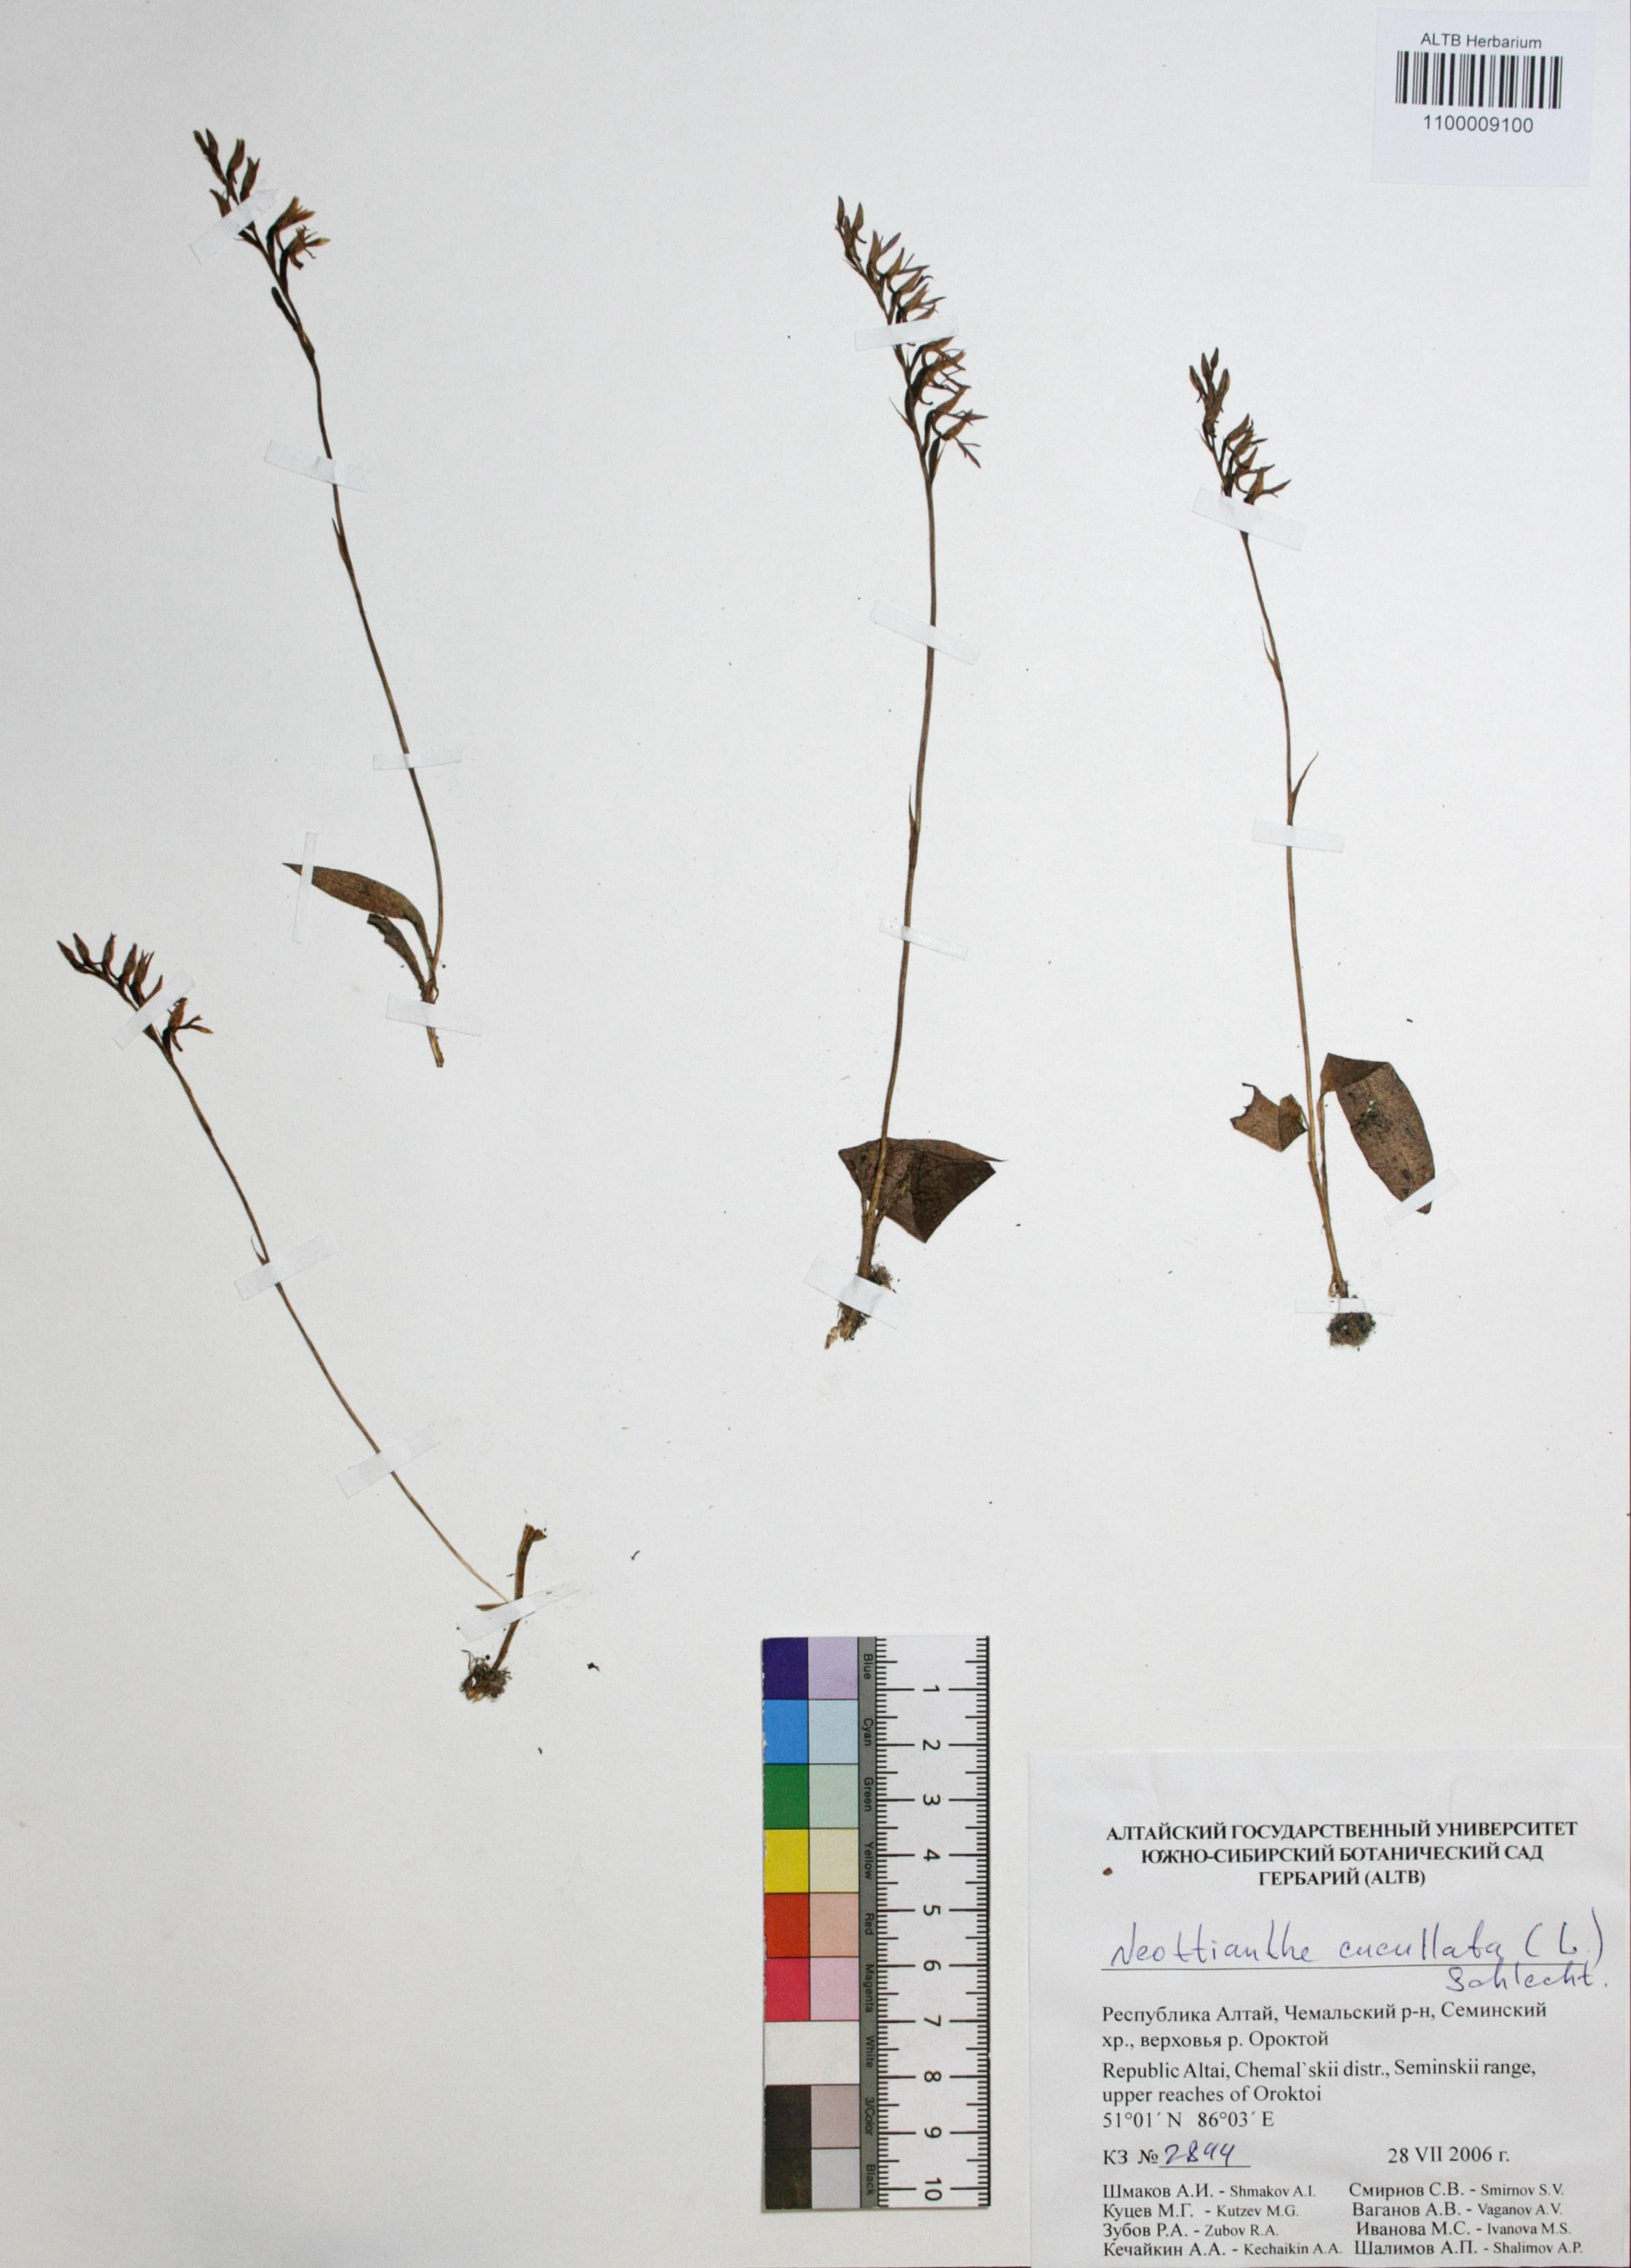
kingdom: Plantae
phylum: Tracheophyta
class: Liliopsida
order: Asparagales
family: Orchidaceae
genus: Hemipilia
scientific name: Hemipilia cucullata
